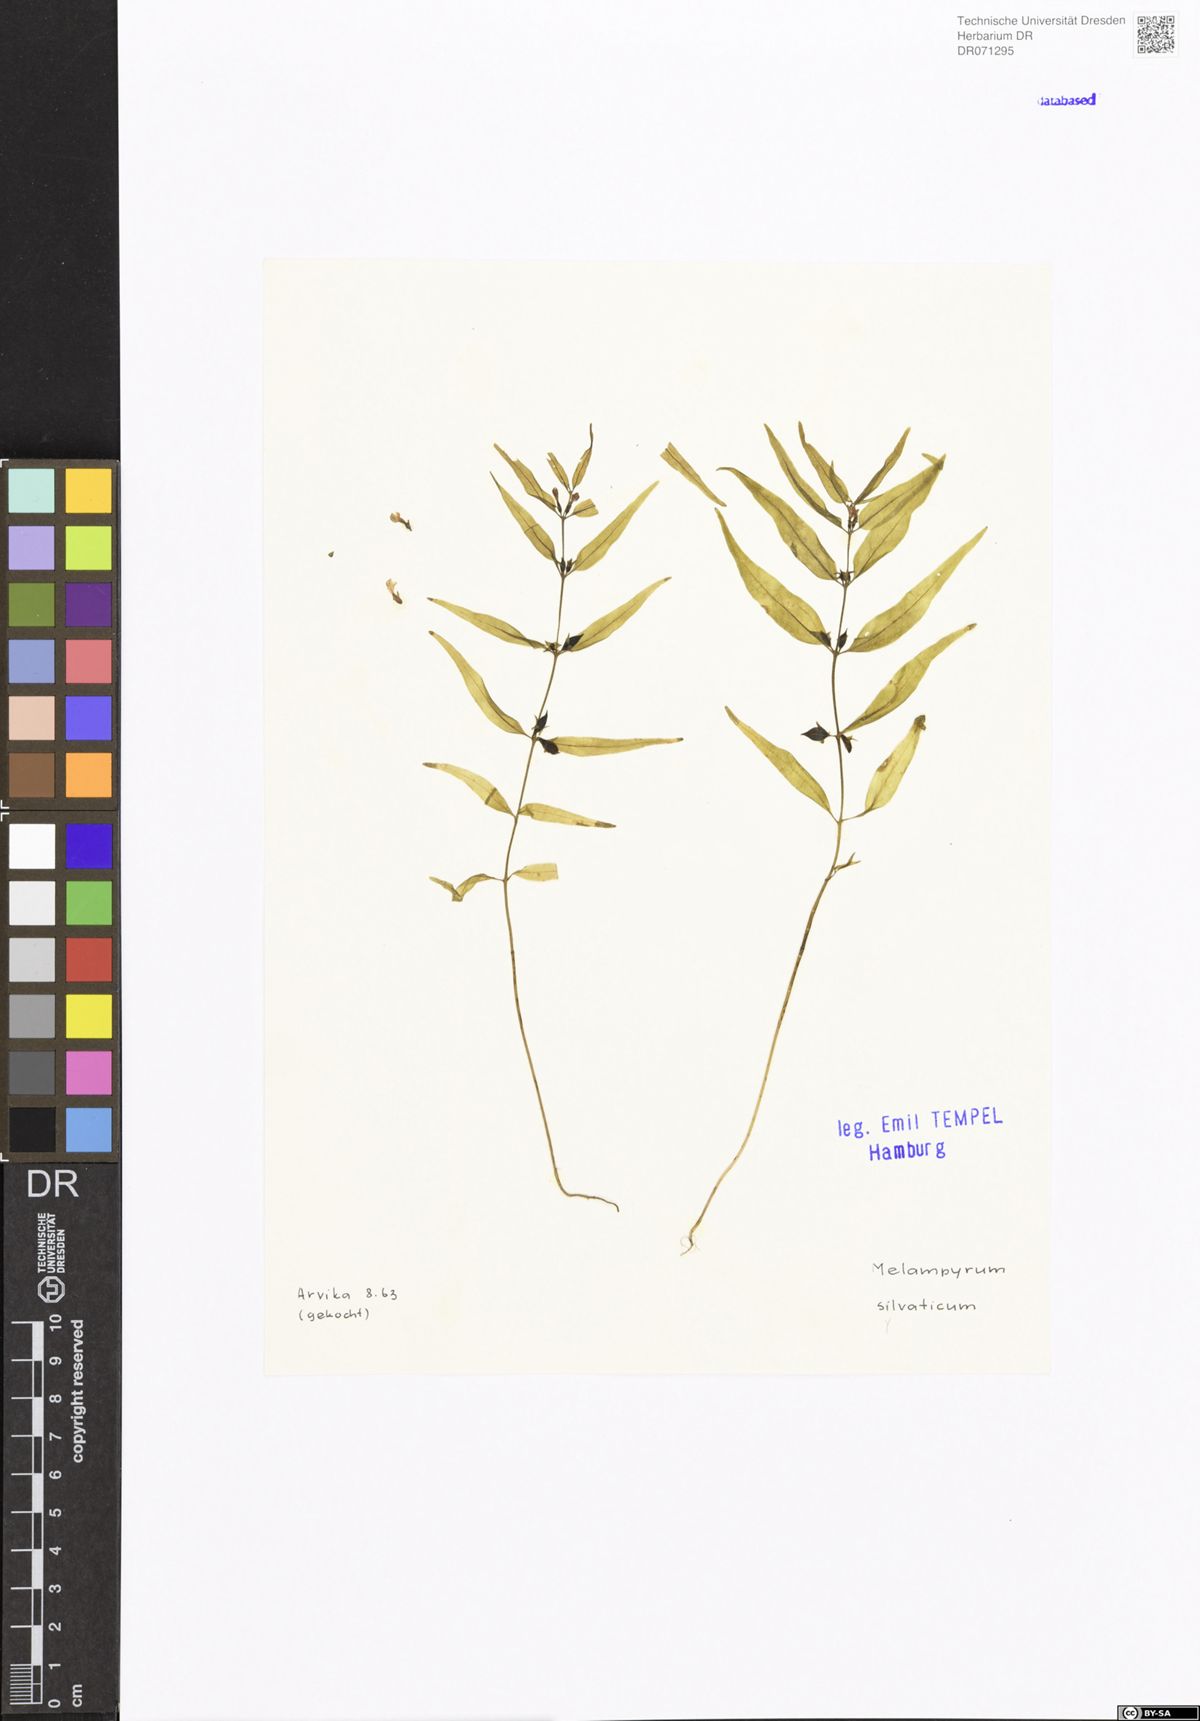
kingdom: Plantae
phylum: Tracheophyta
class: Magnoliopsida
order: Lamiales
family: Orobanchaceae
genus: Melampyrum
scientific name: Melampyrum sylvaticum
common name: Small cow-wheat
